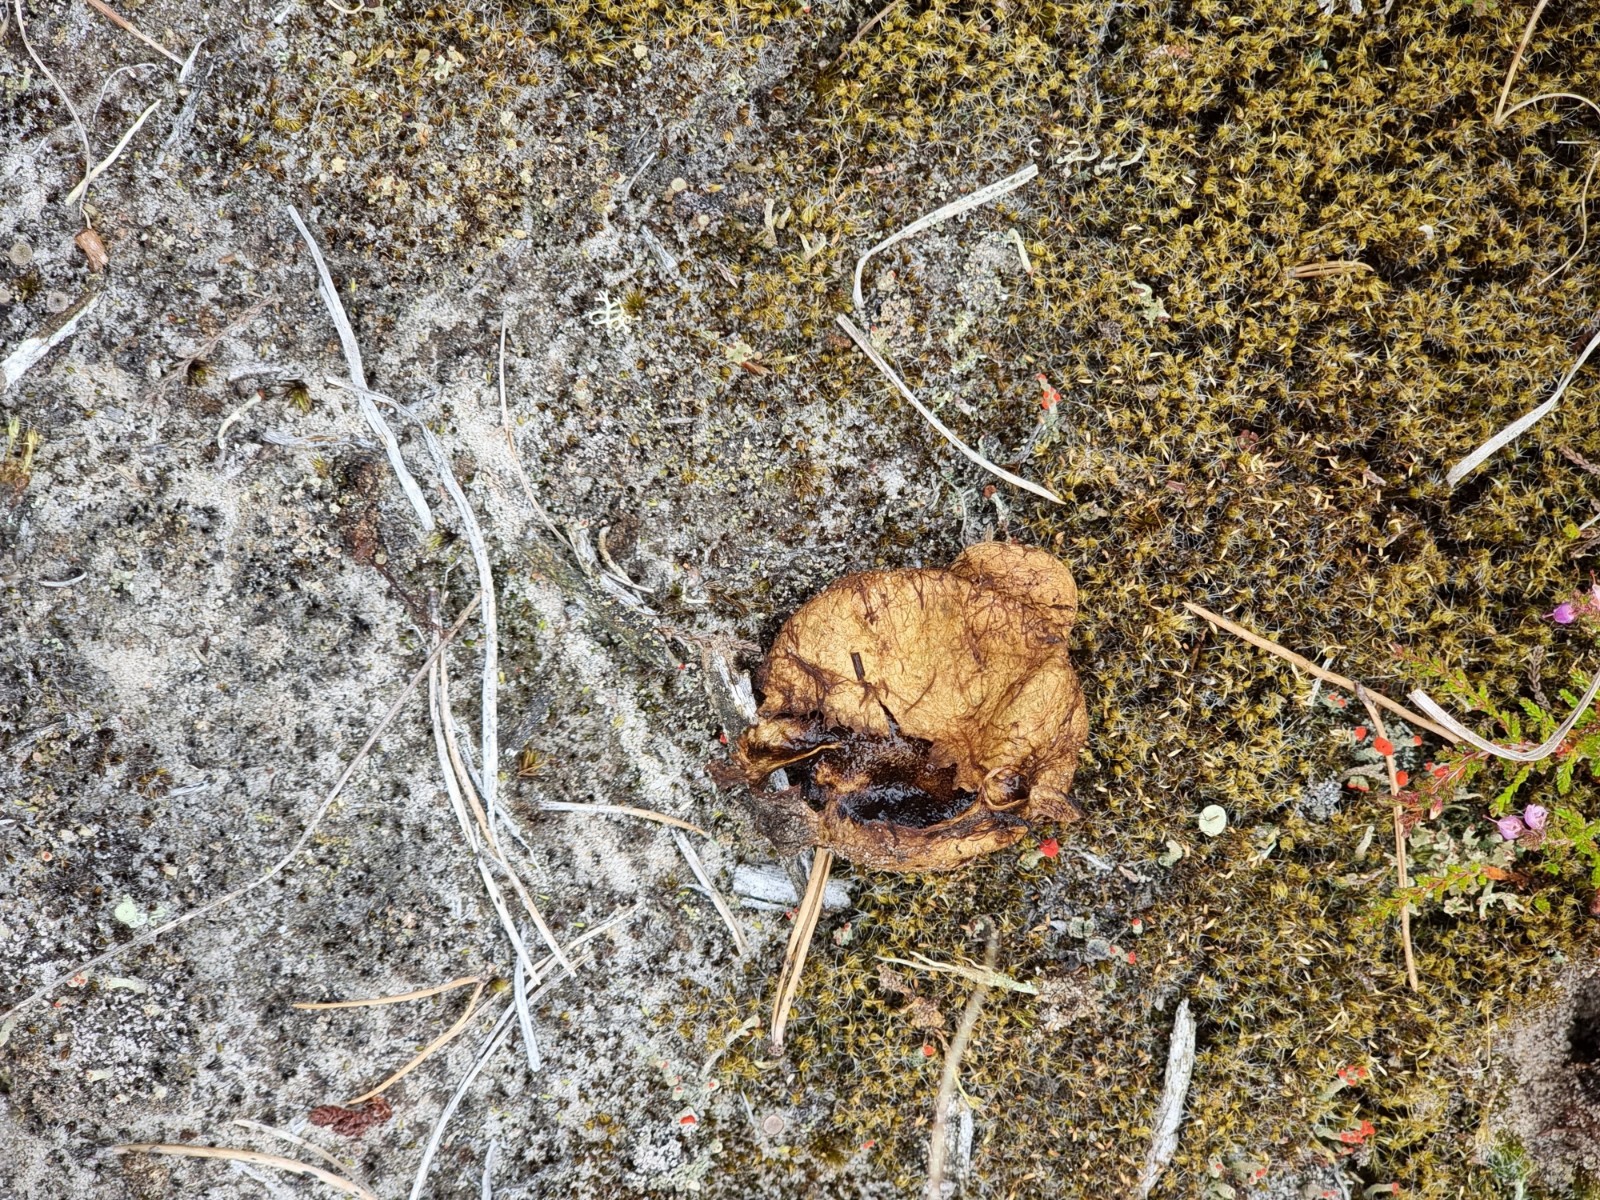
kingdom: Fungi
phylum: Basidiomycota
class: Agaricomycetes
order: Boletales
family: Rhizopogonaceae
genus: Rhizopogon
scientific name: Rhizopogon obtextus
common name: gul skægtrøffel
